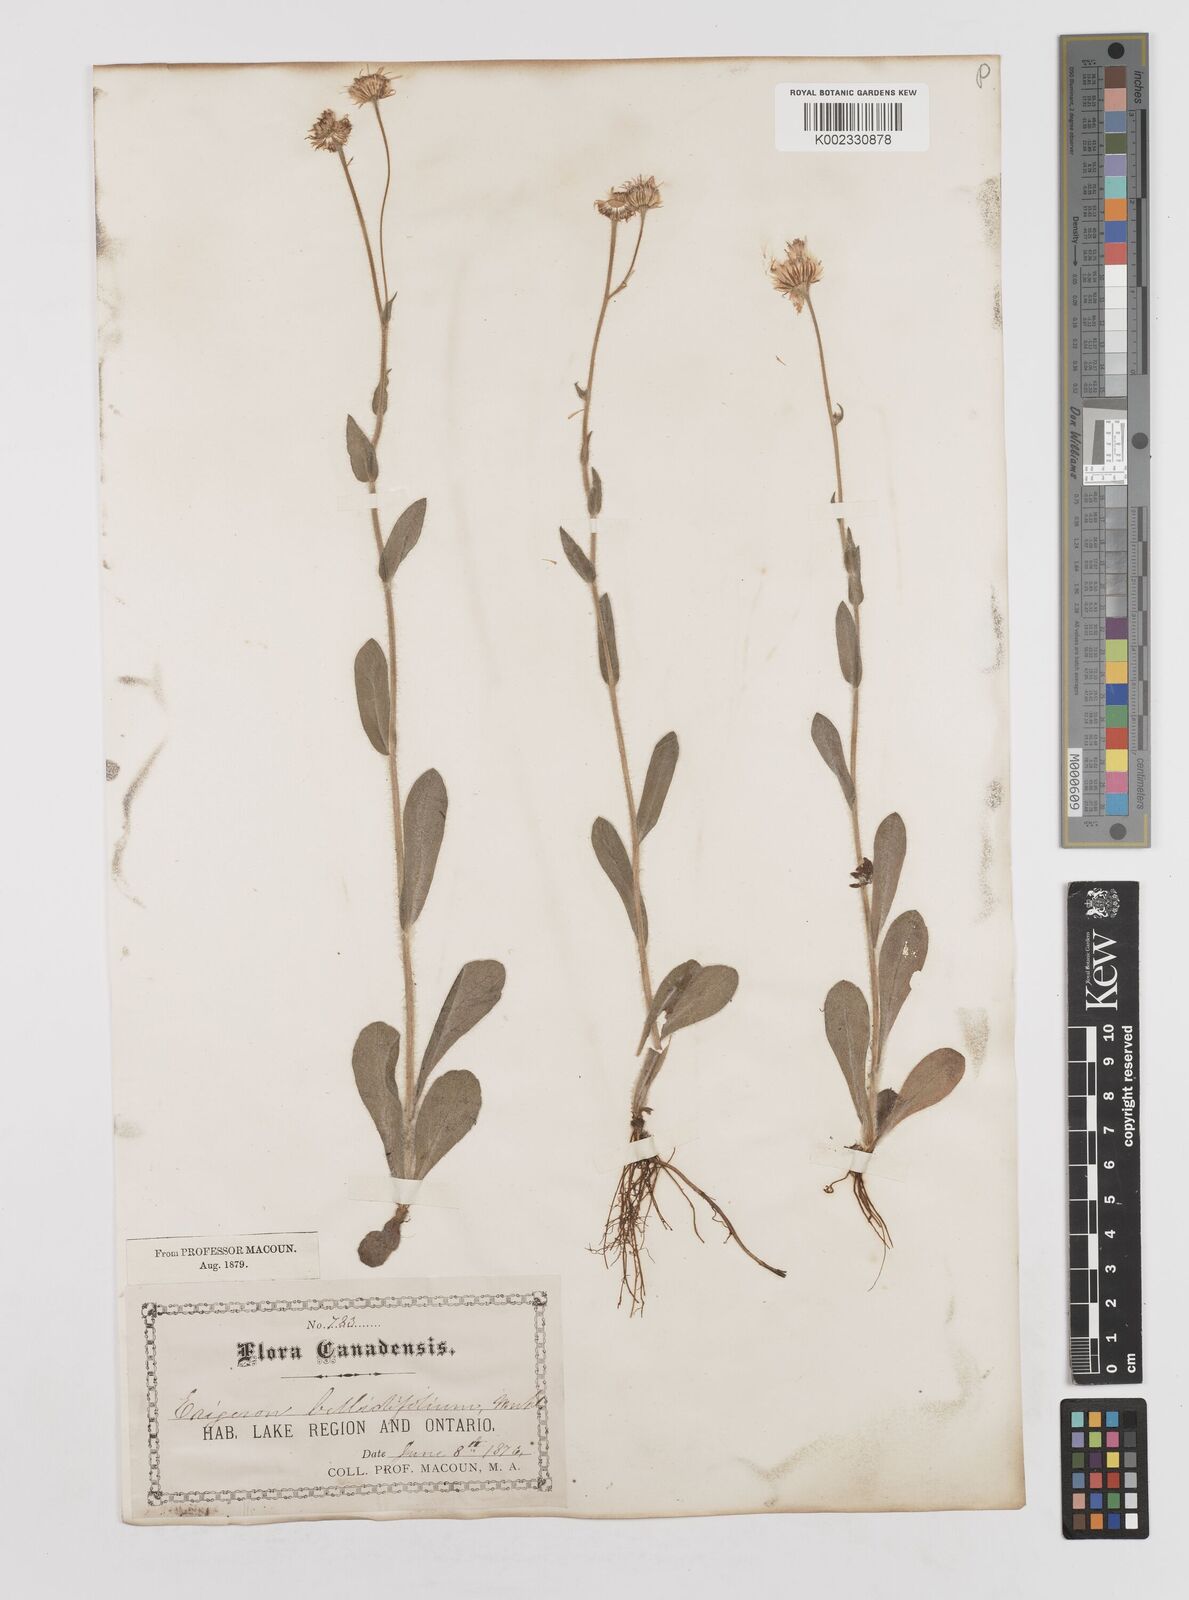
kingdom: Plantae
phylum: Tracheophyta
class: Magnoliopsida
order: Asterales
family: Asteraceae
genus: Erigeron
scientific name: Erigeron pulchellus
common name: Hairy fleabane
